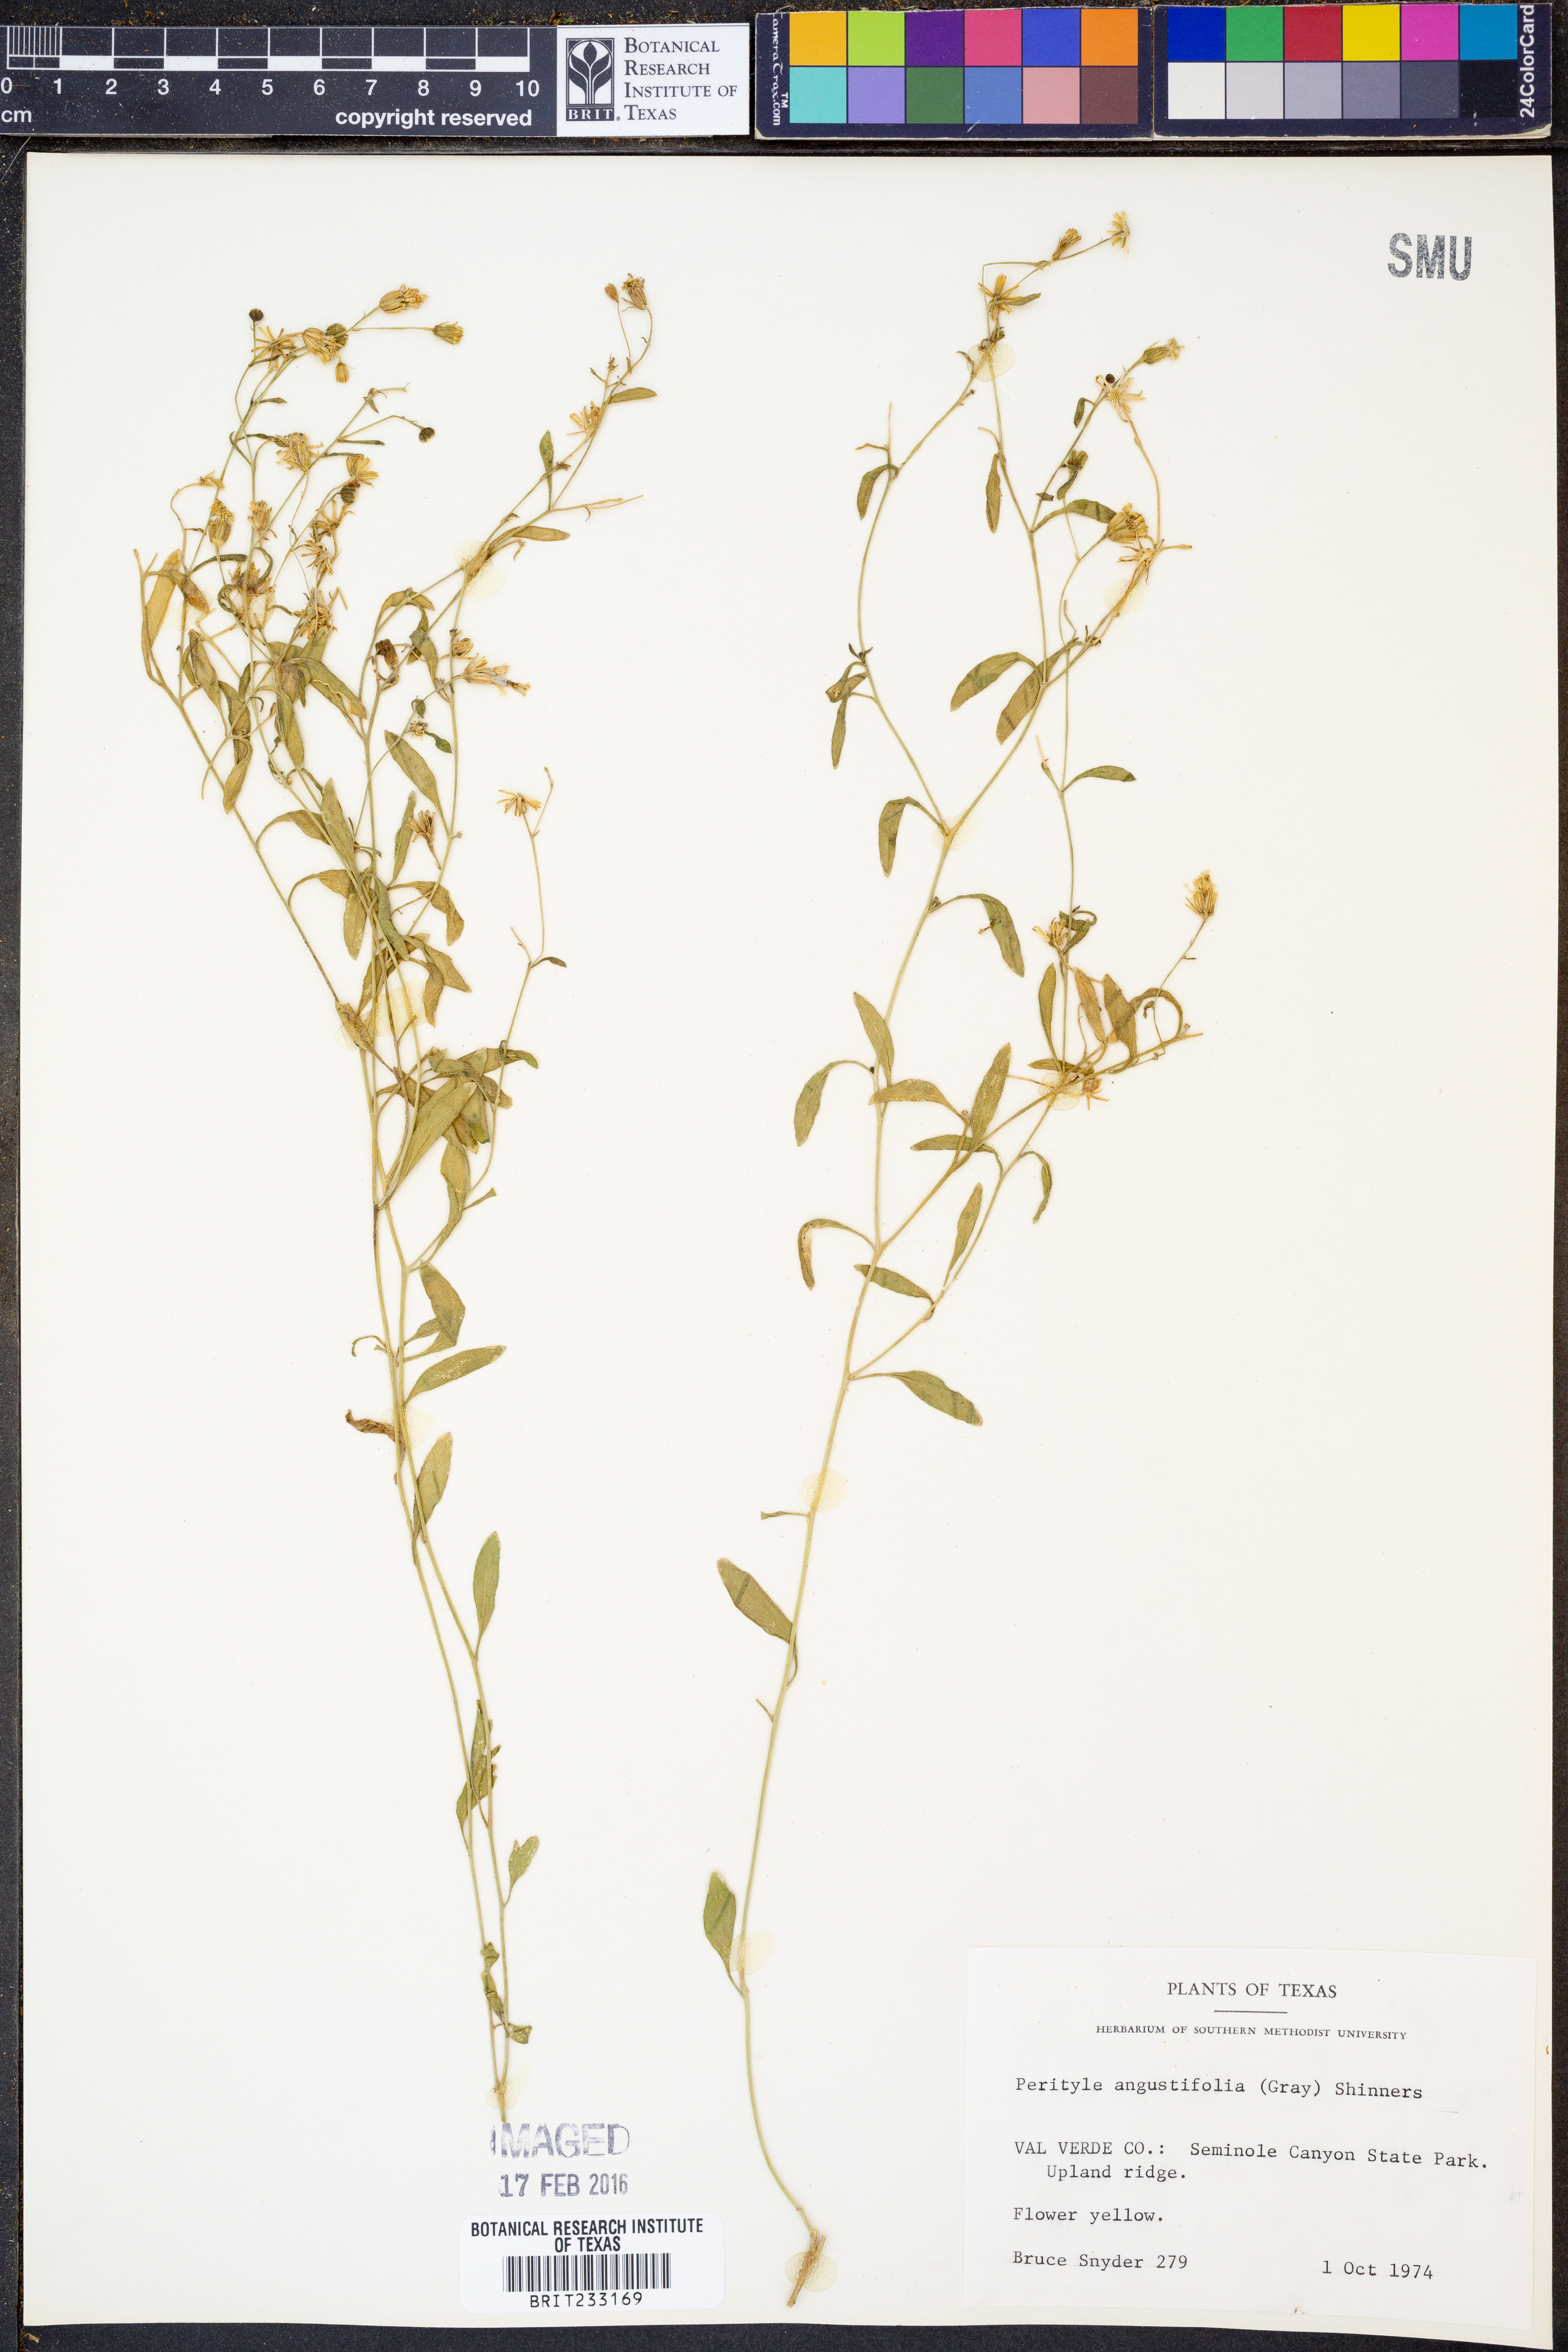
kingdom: Plantae
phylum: Tracheophyta
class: Magnoliopsida
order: Asterales
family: Asteraceae
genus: Laphamia
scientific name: Laphamia angustifolia
